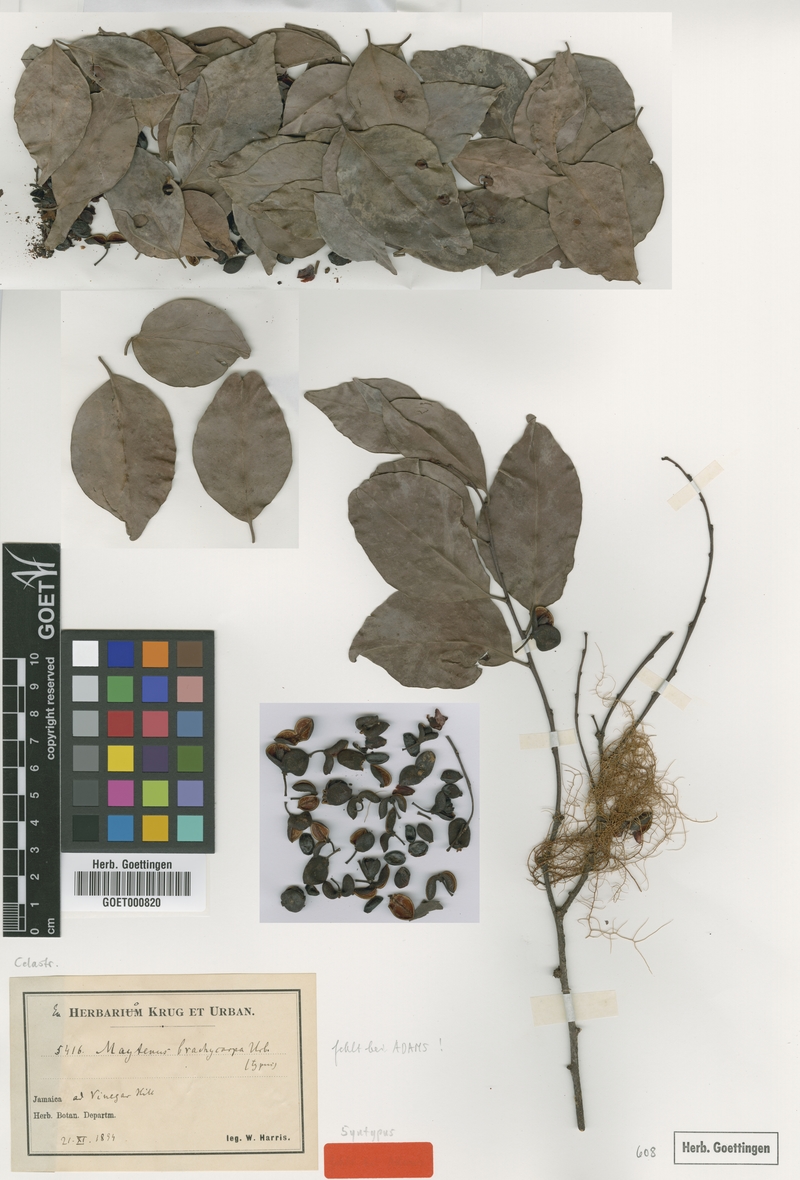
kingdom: Plantae
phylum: Tracheophyta
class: Magnoliopsida
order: Celastrales
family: Celastraceae
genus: Monteverdia
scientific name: Monteverdia jamaicensis
